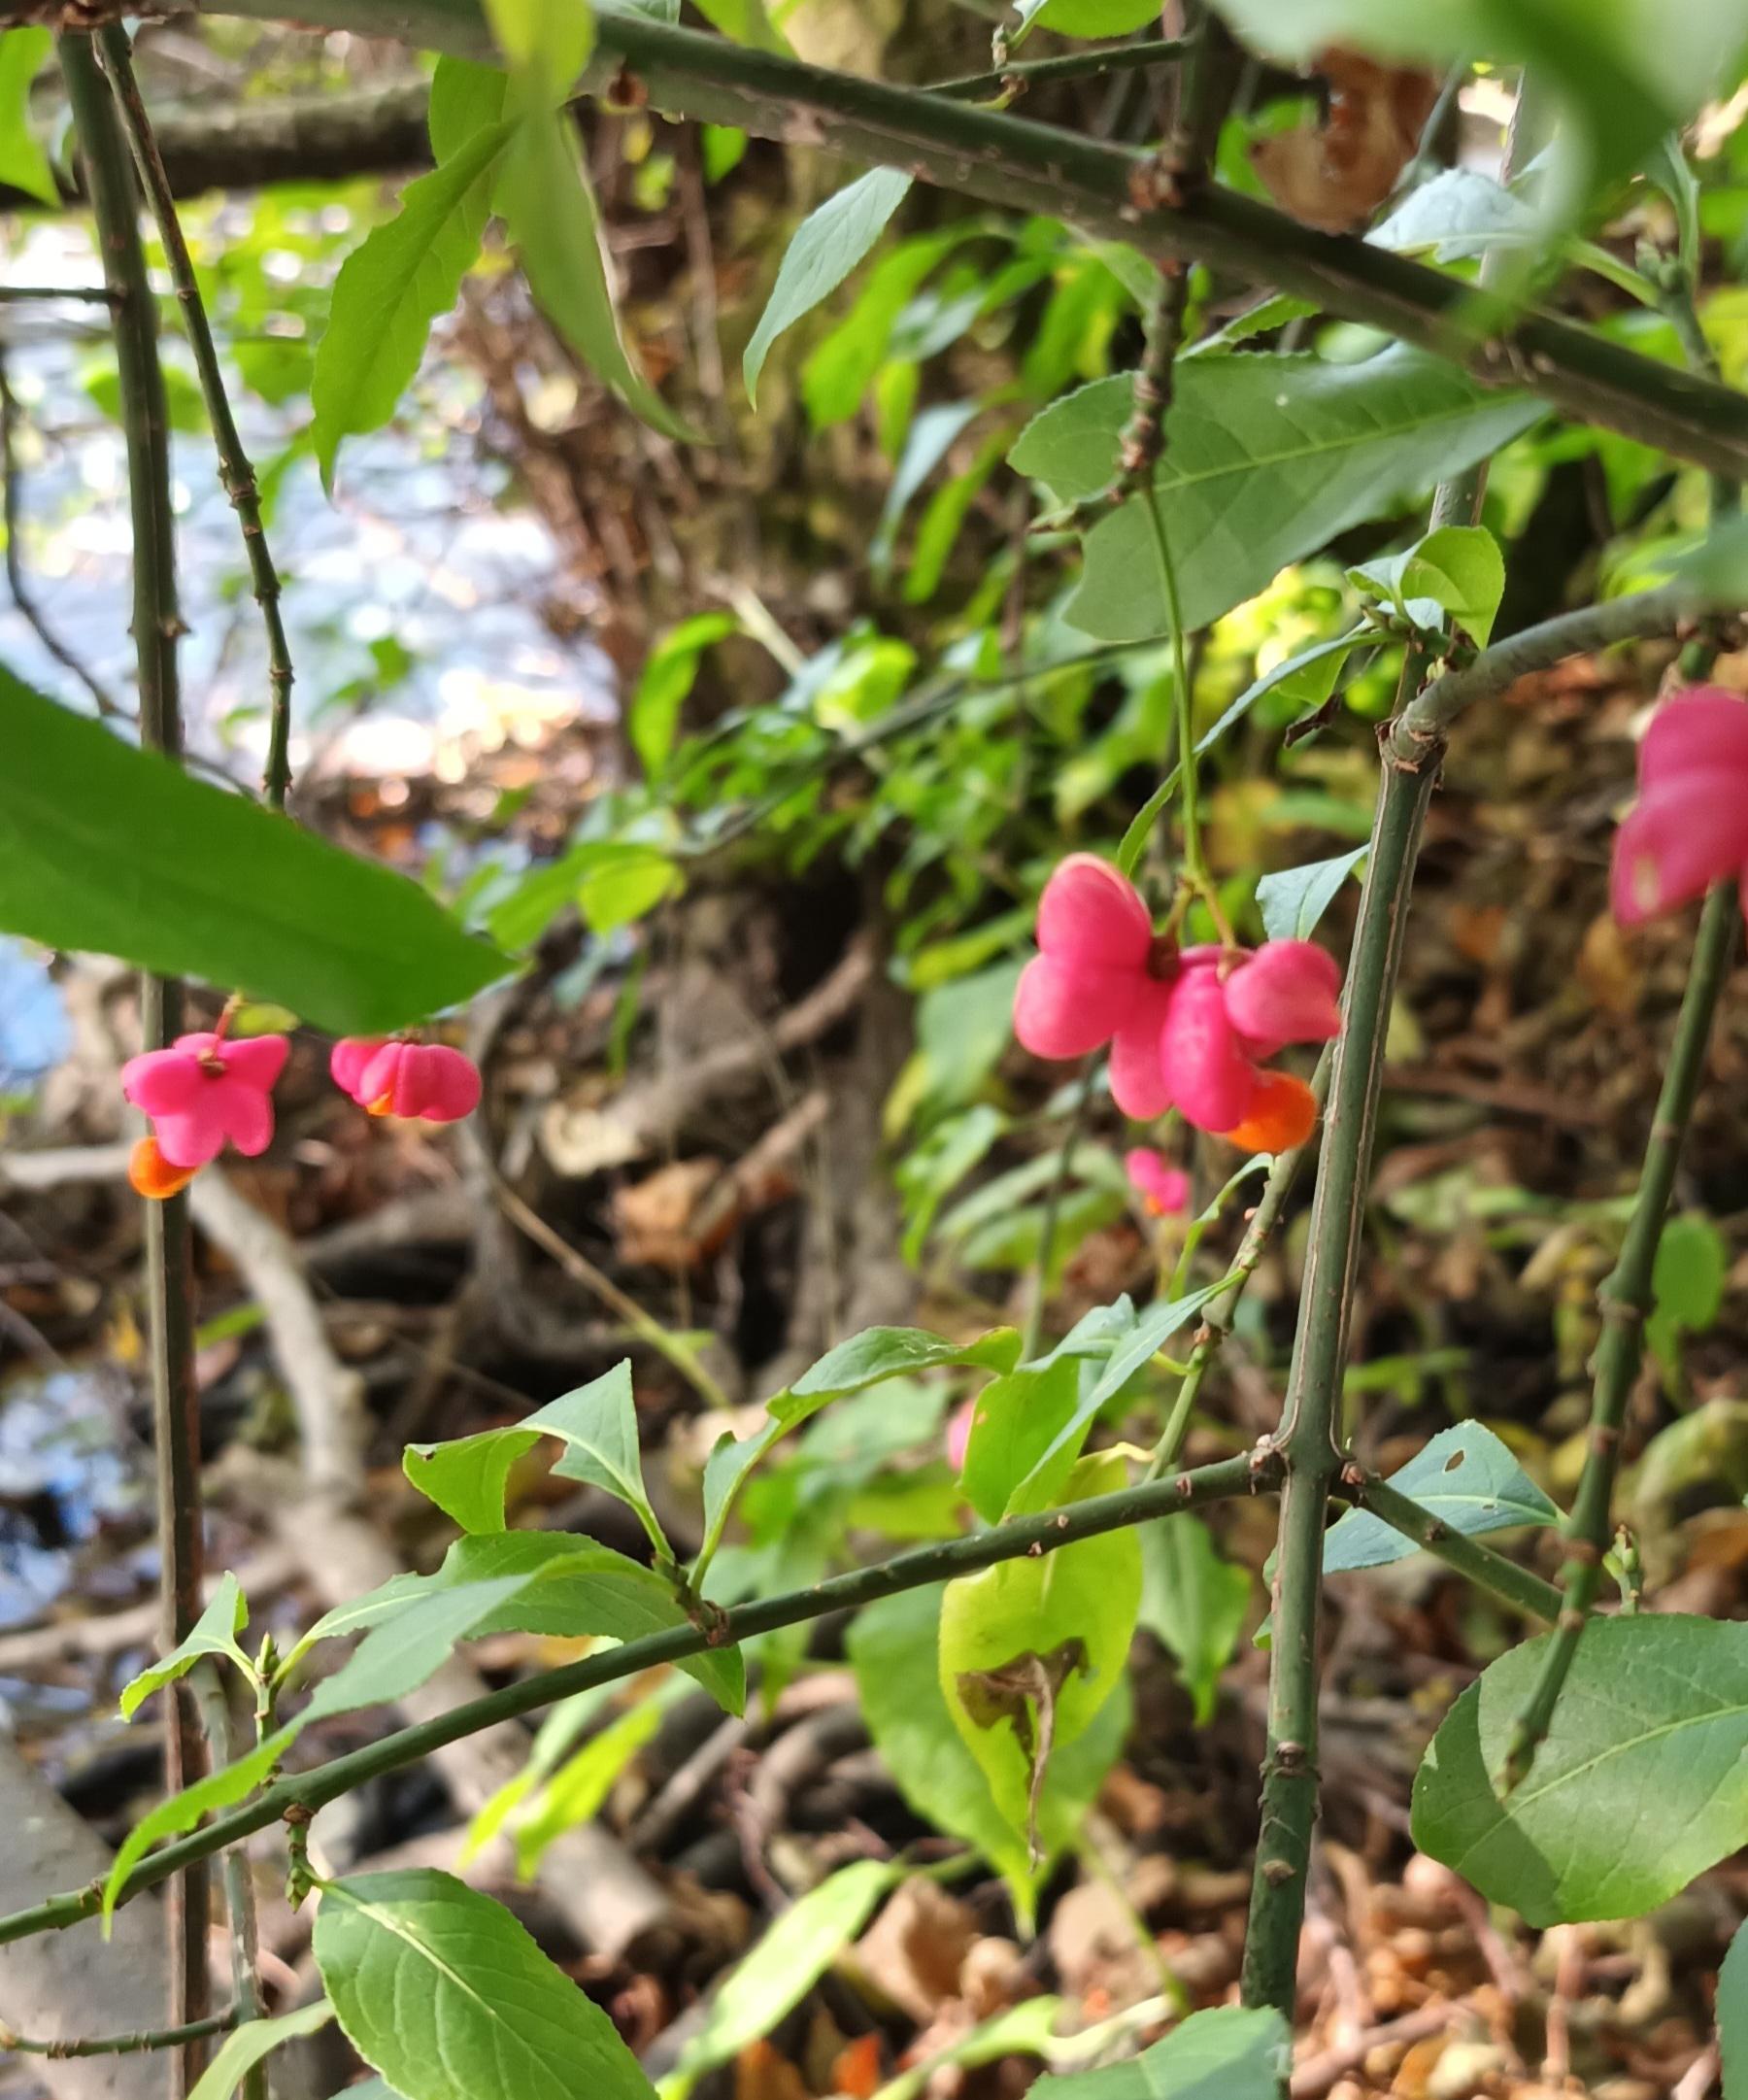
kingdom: Plantae
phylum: Tracheophyta
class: Magnoliopsida
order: Celastrales
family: Celastraceae
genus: Euonymus
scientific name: Euonymus europaeus
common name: Benved
